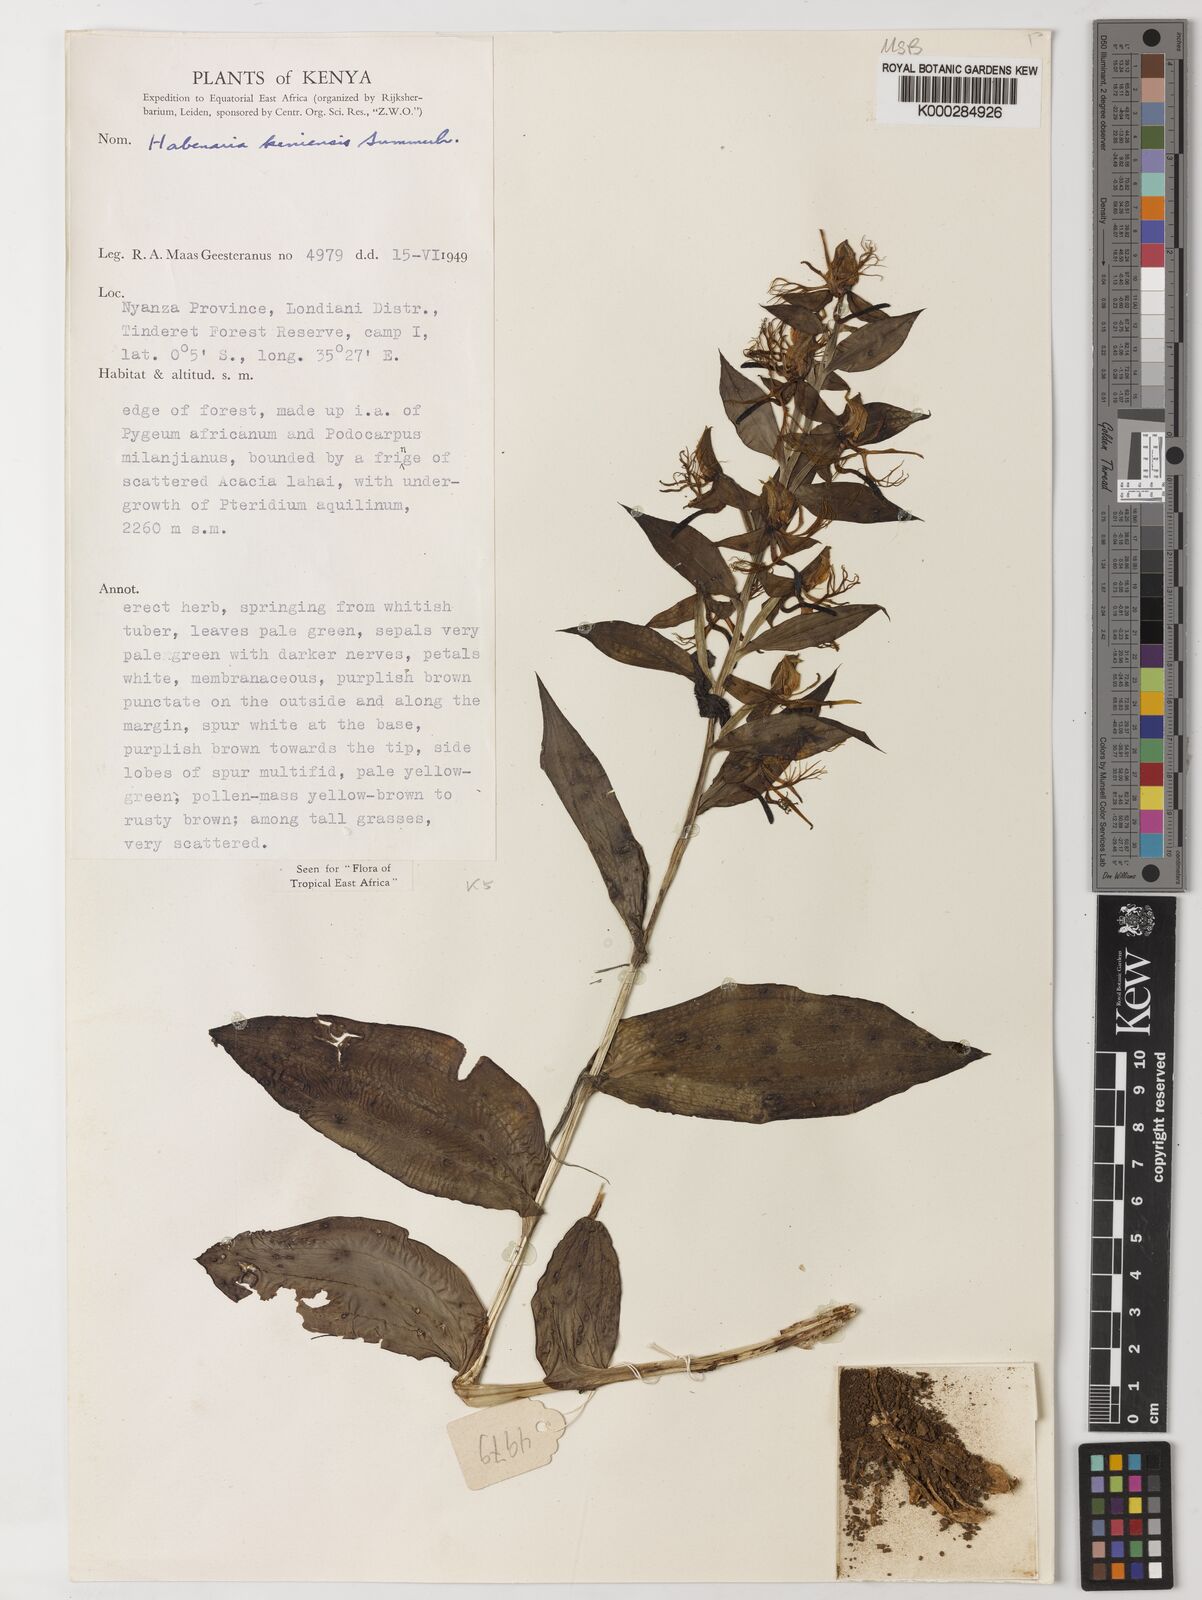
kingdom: Plantae
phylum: Tracheophyta
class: Liliopsida
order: Asparagales
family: Orchidaceae
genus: Habenaria
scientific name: Habenaria keniensis
